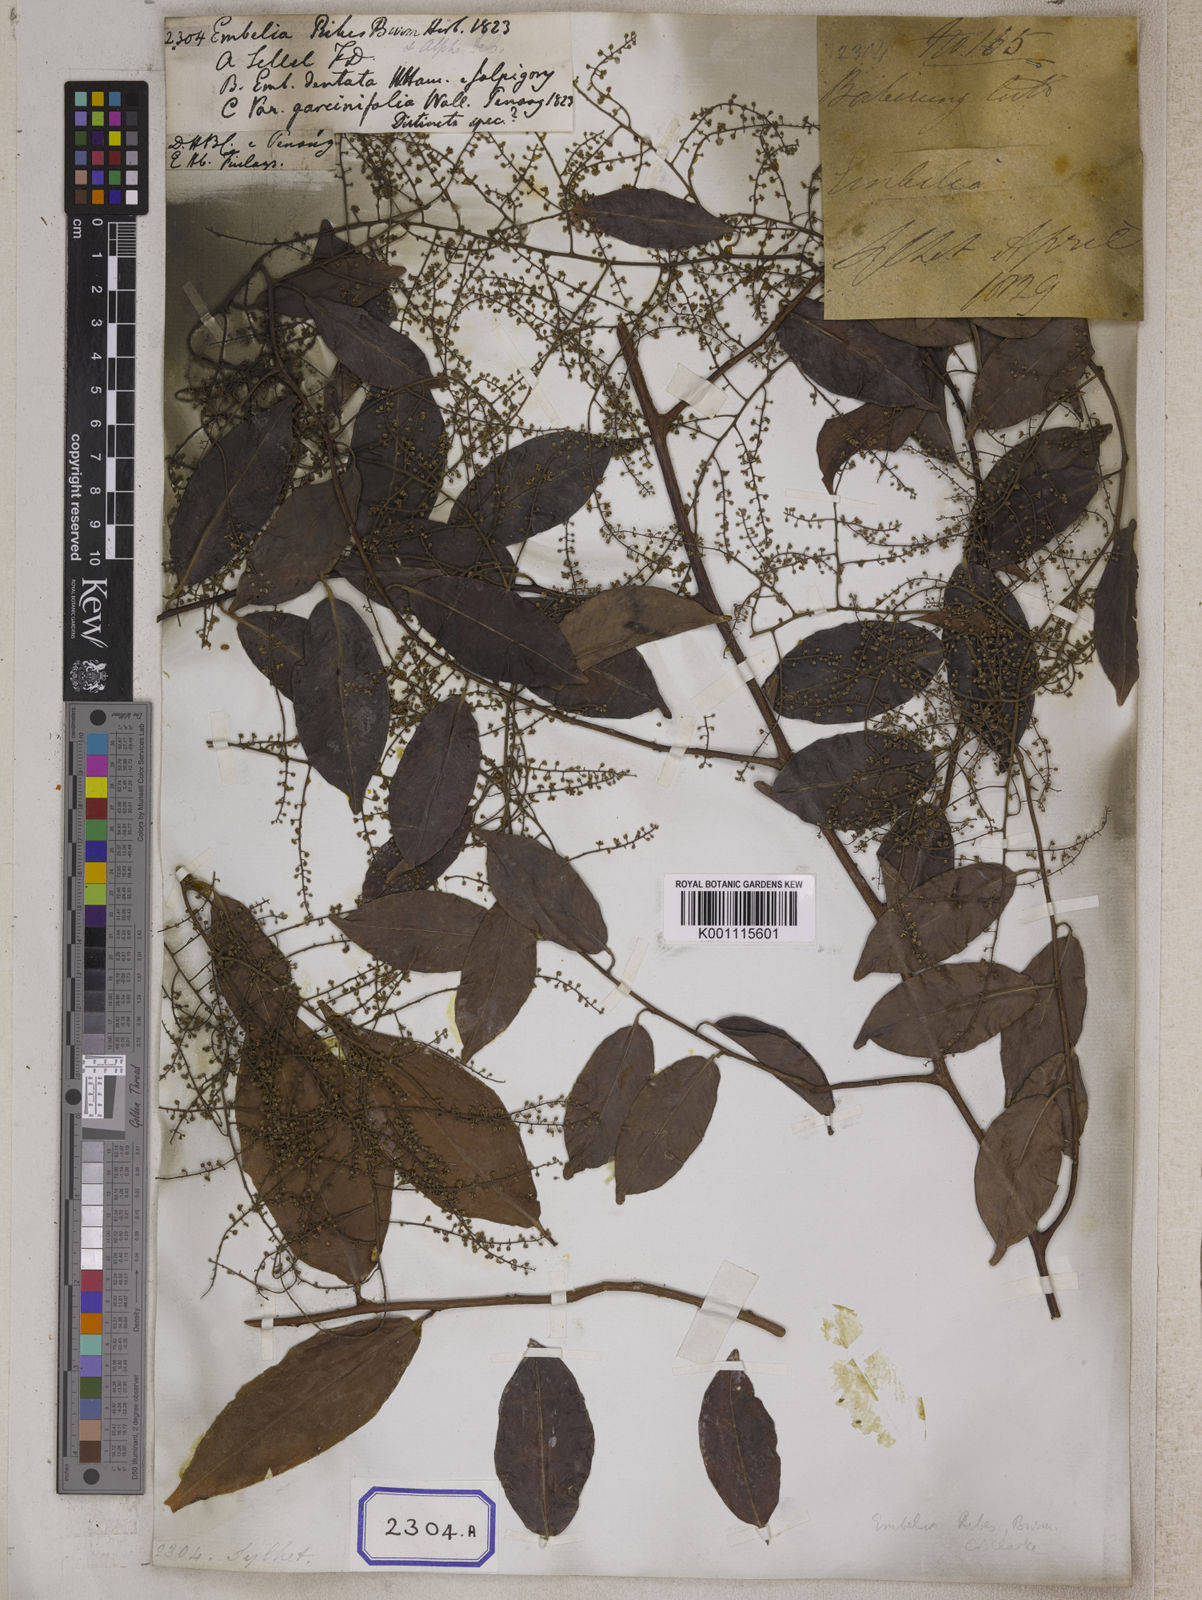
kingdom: Plantae
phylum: Tracheophyta
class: Magnoliopsida
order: Ericales
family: Primulaceae
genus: Embelia
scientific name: Embelia ribes
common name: Vidanga
